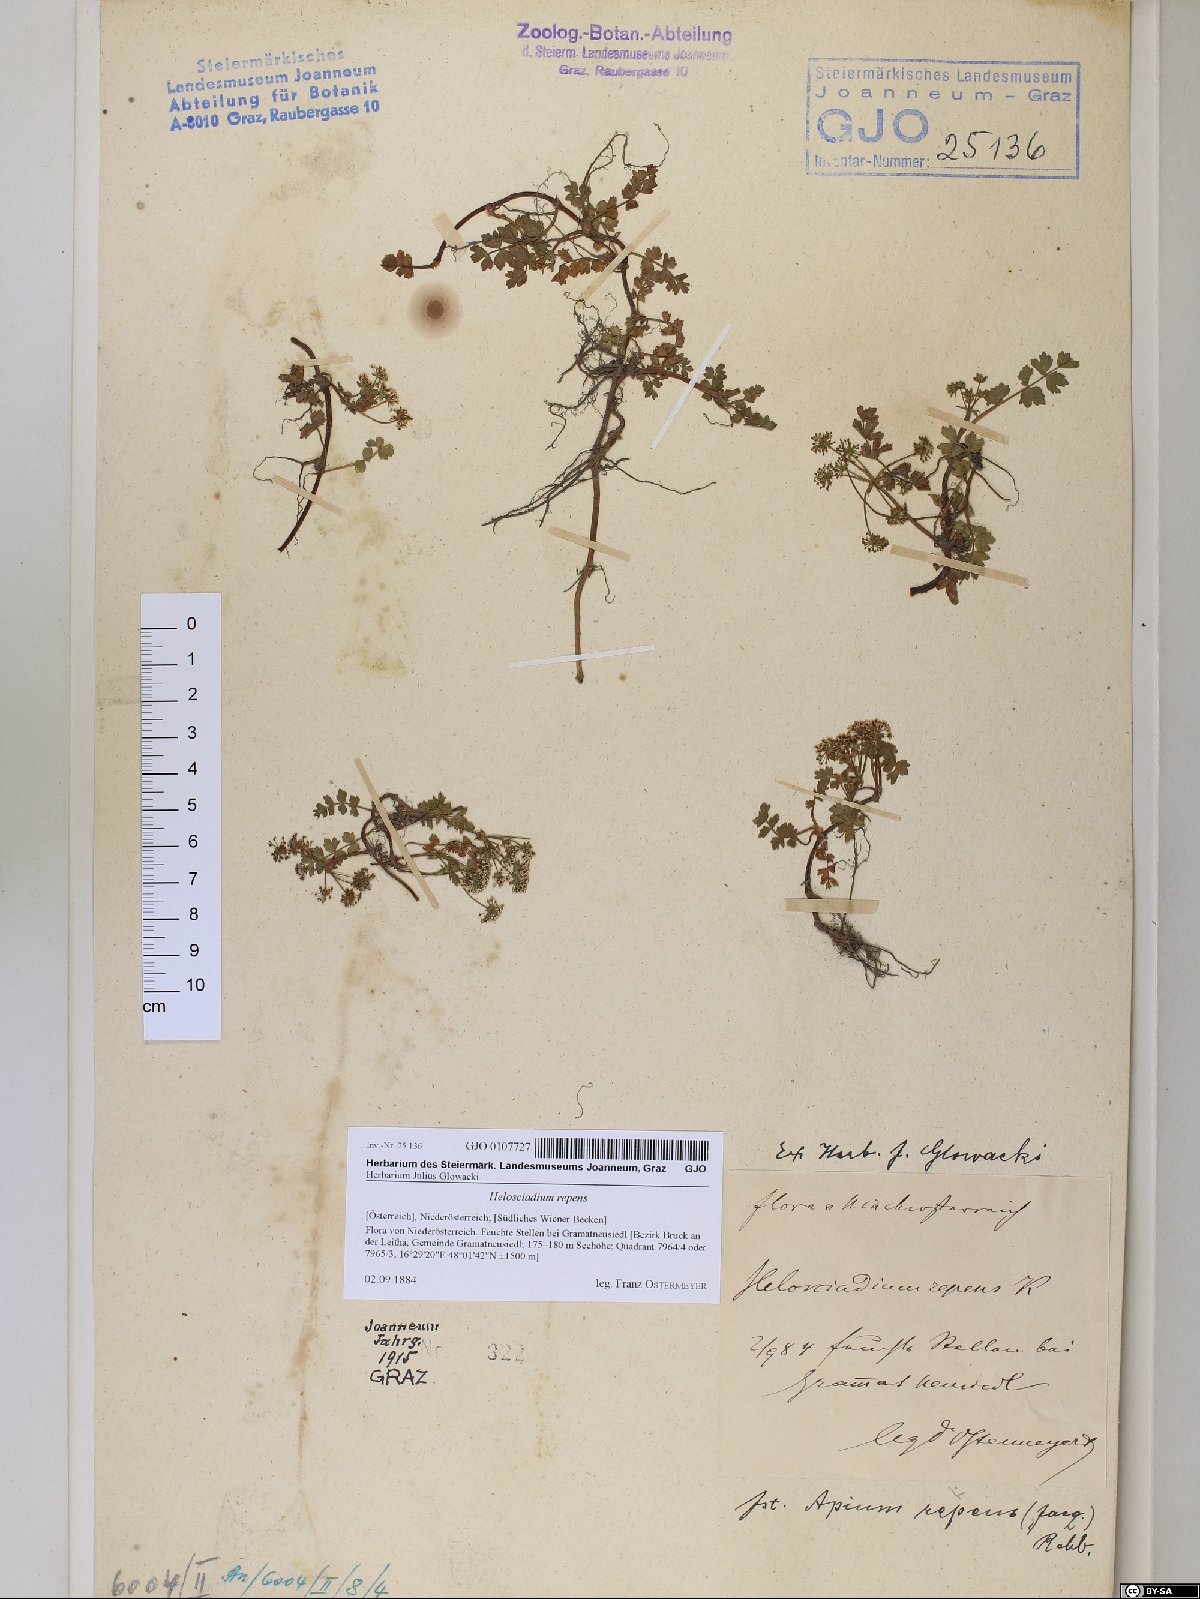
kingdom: Plantae
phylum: Tracheophyta
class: Magnoliopsida
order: Apiales
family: Apiaceae
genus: Helosciadium
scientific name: Helosciadium repens
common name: Creeping marshwort
